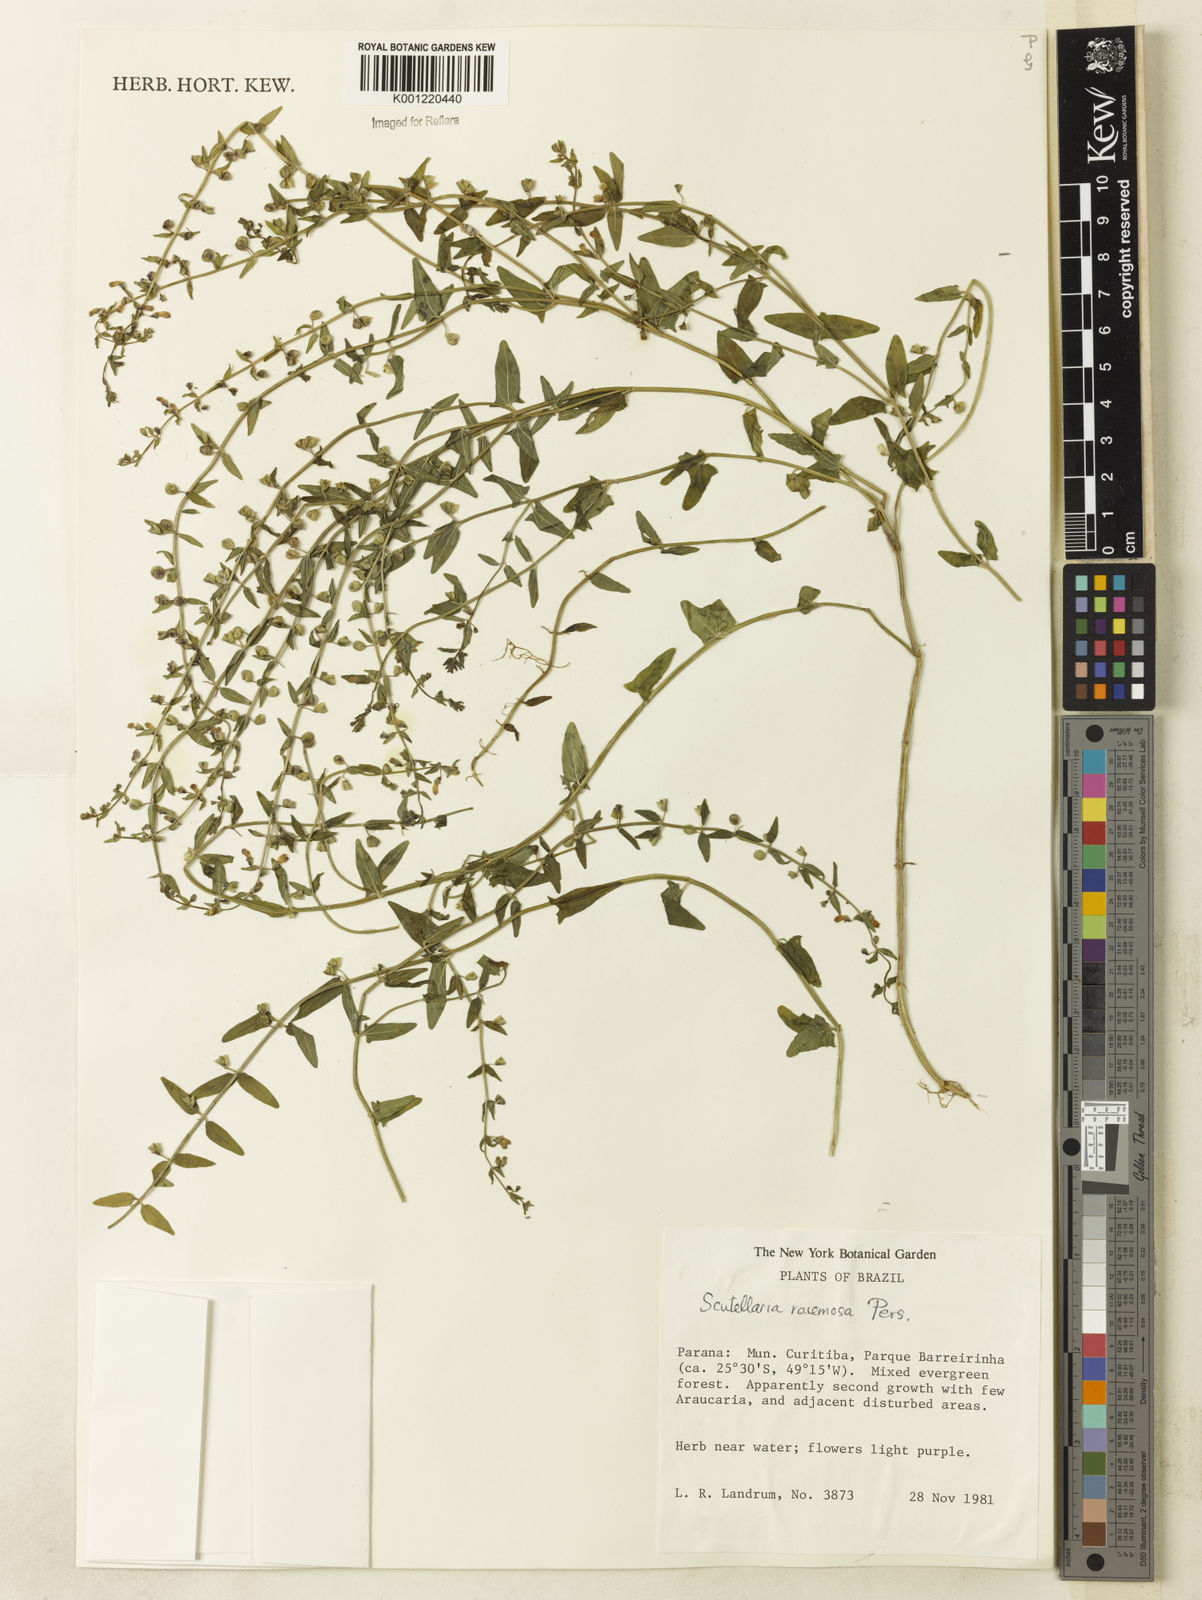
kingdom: Plantae
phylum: Tracheophyta
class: Magnoliopsida
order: Lamiales
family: Lamiaceae
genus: Scutellaria
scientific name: Scutellaria racemosa
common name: South american skullcap
